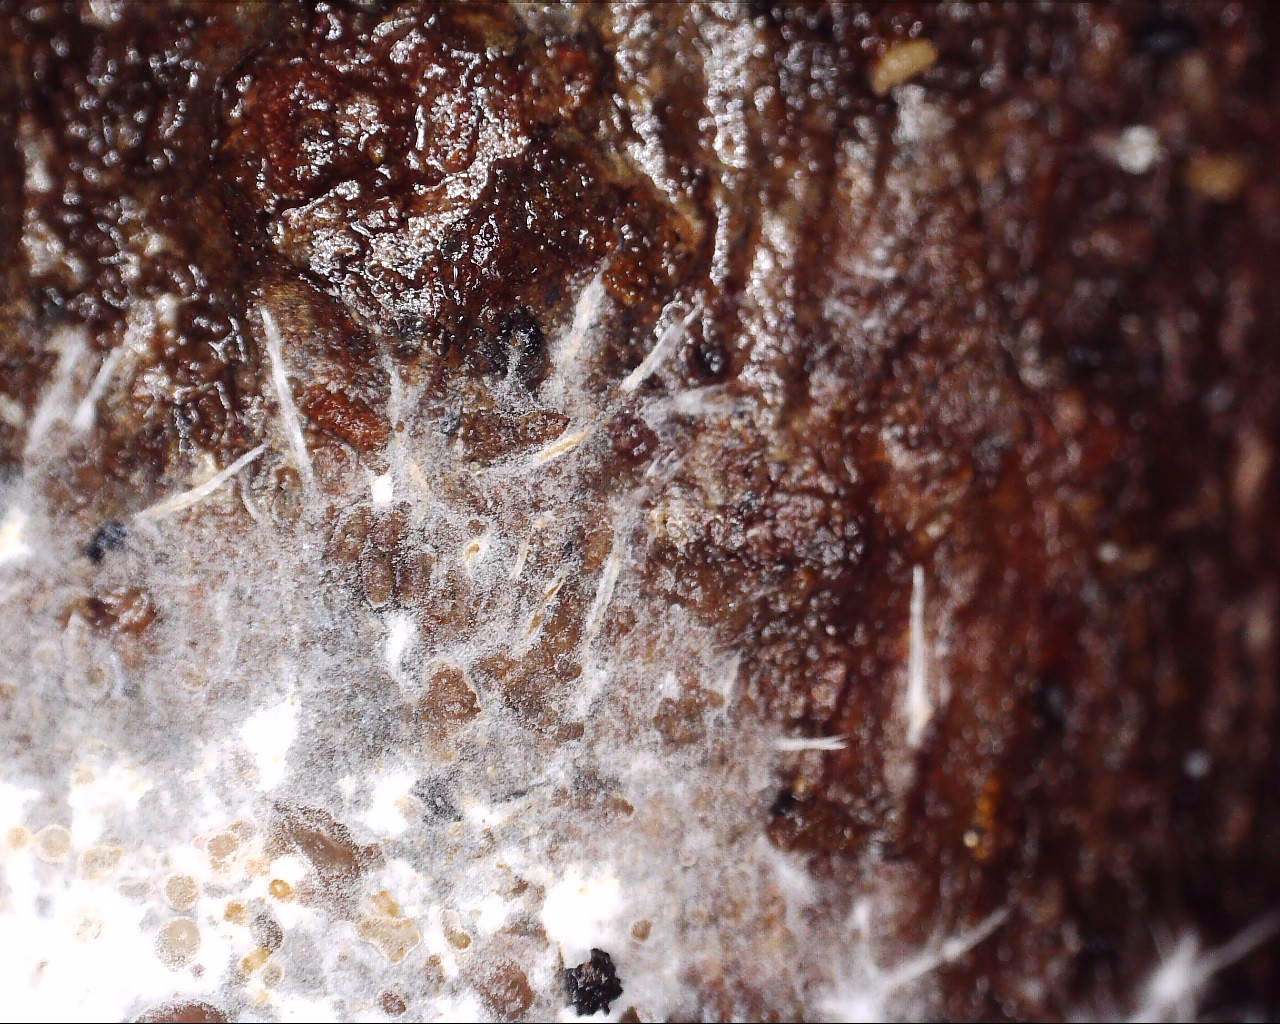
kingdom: Fungi
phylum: Basidiomycota
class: Agaricomycetes
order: Hymenochaetales
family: Rickenellaceae
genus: Resinicium
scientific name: Resinicium bicolor
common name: almindelig vokstand
